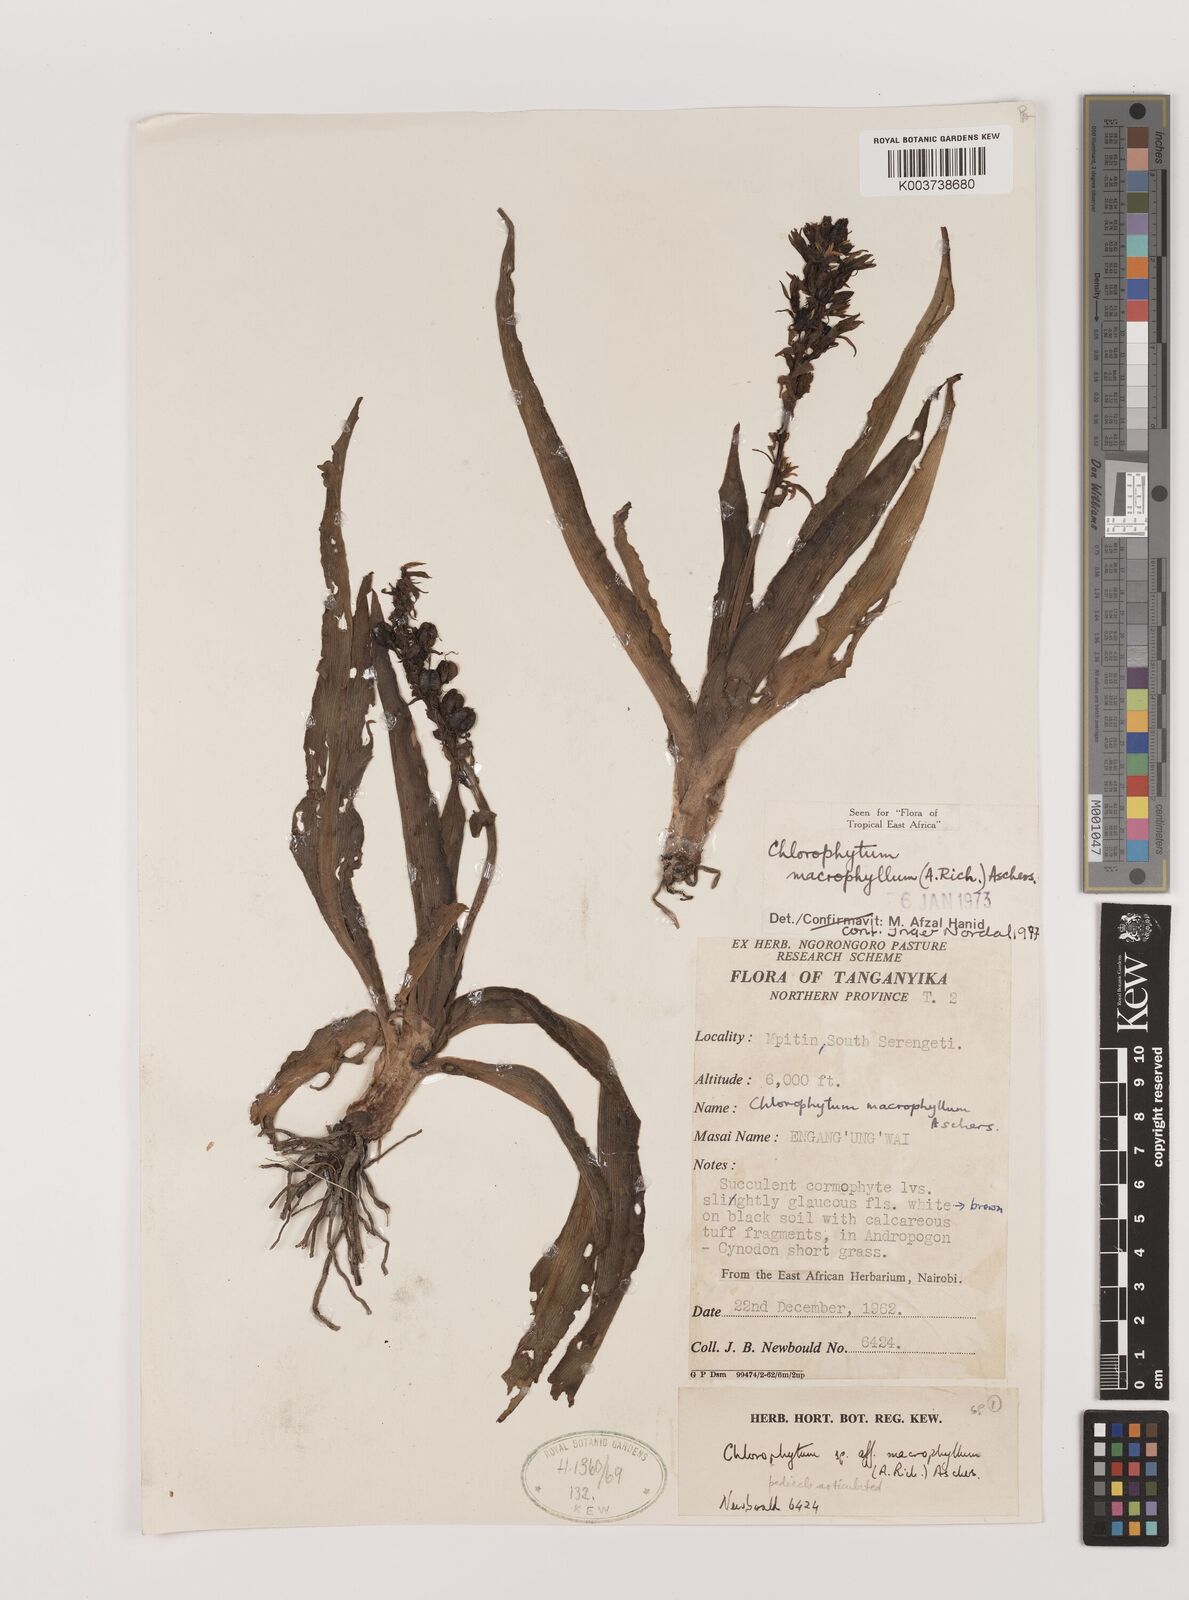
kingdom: Plantae
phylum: Tracheophyta
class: Liliopsida
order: Asparagales
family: Asparagaceae
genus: Chlorophytum
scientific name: Chlorophytum macrophyllum
